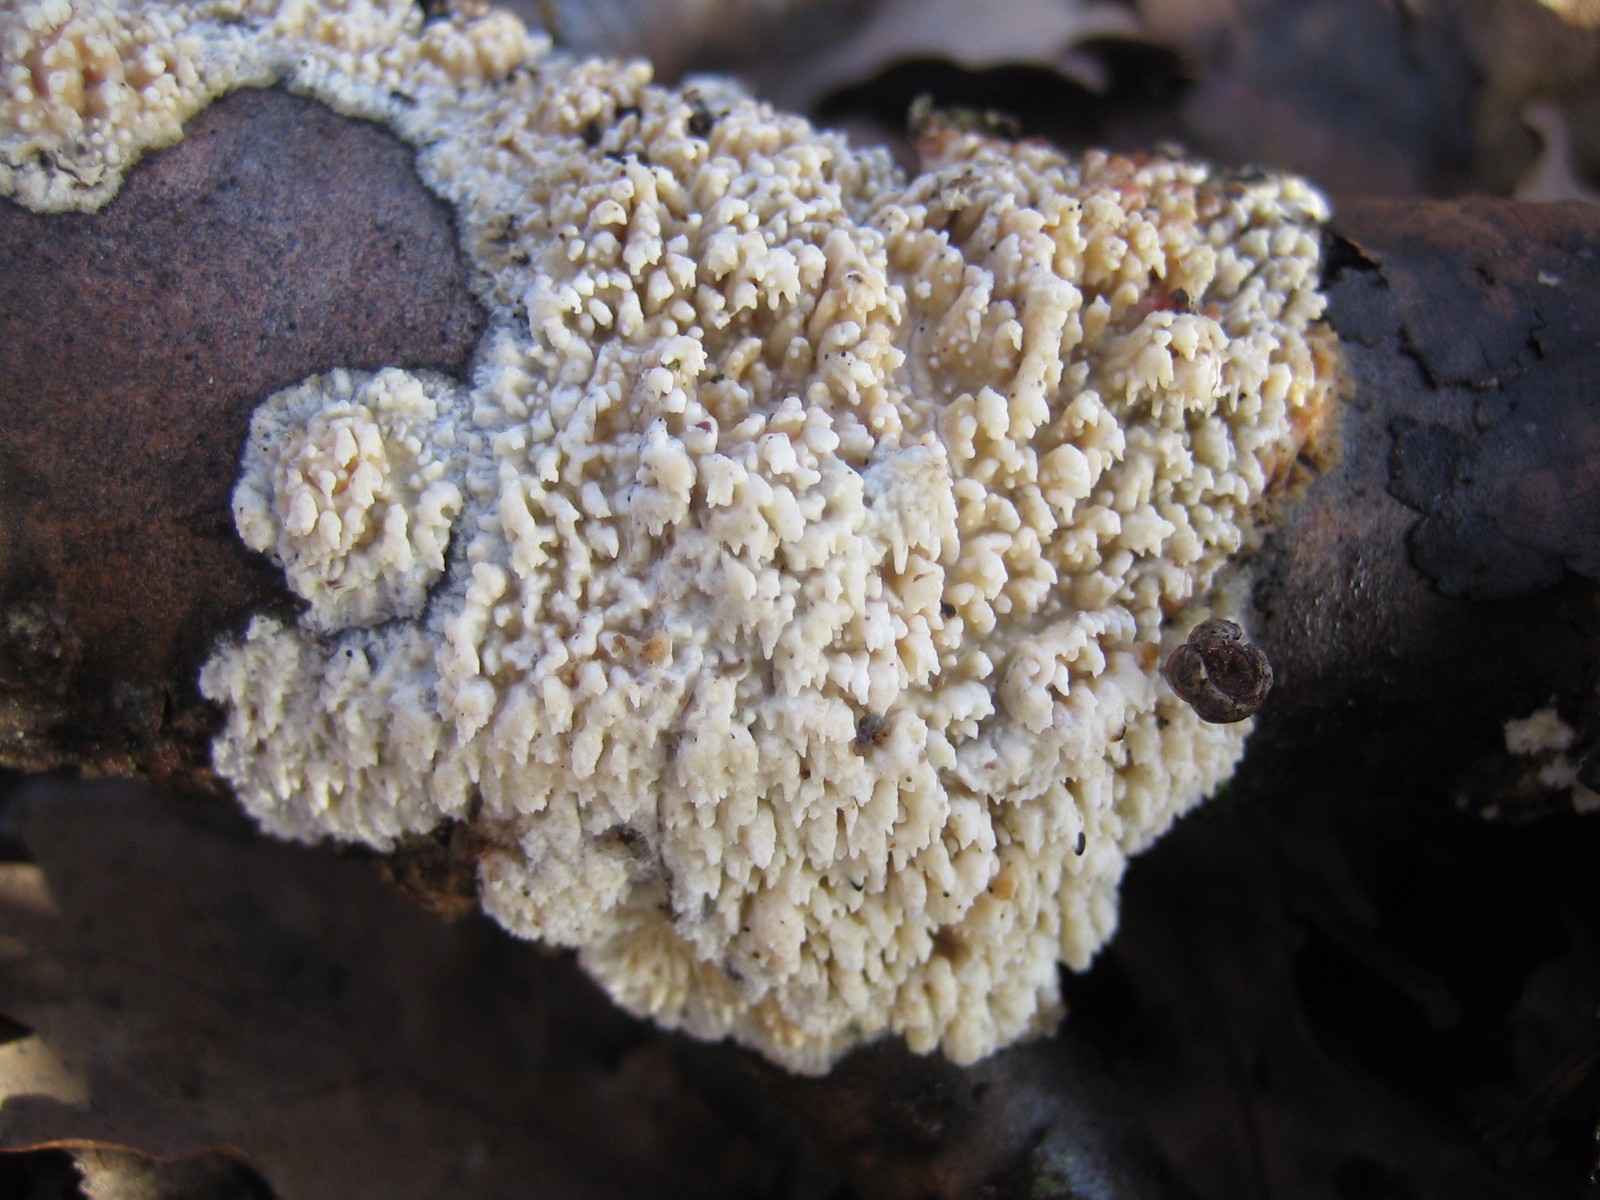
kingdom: Fungi
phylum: Basidiomycota
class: Agaricomycetes
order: Hymenochaetales
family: Schizoporaceae
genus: Xylodon
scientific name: Xylodon radula
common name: grovtandet kalkskind
